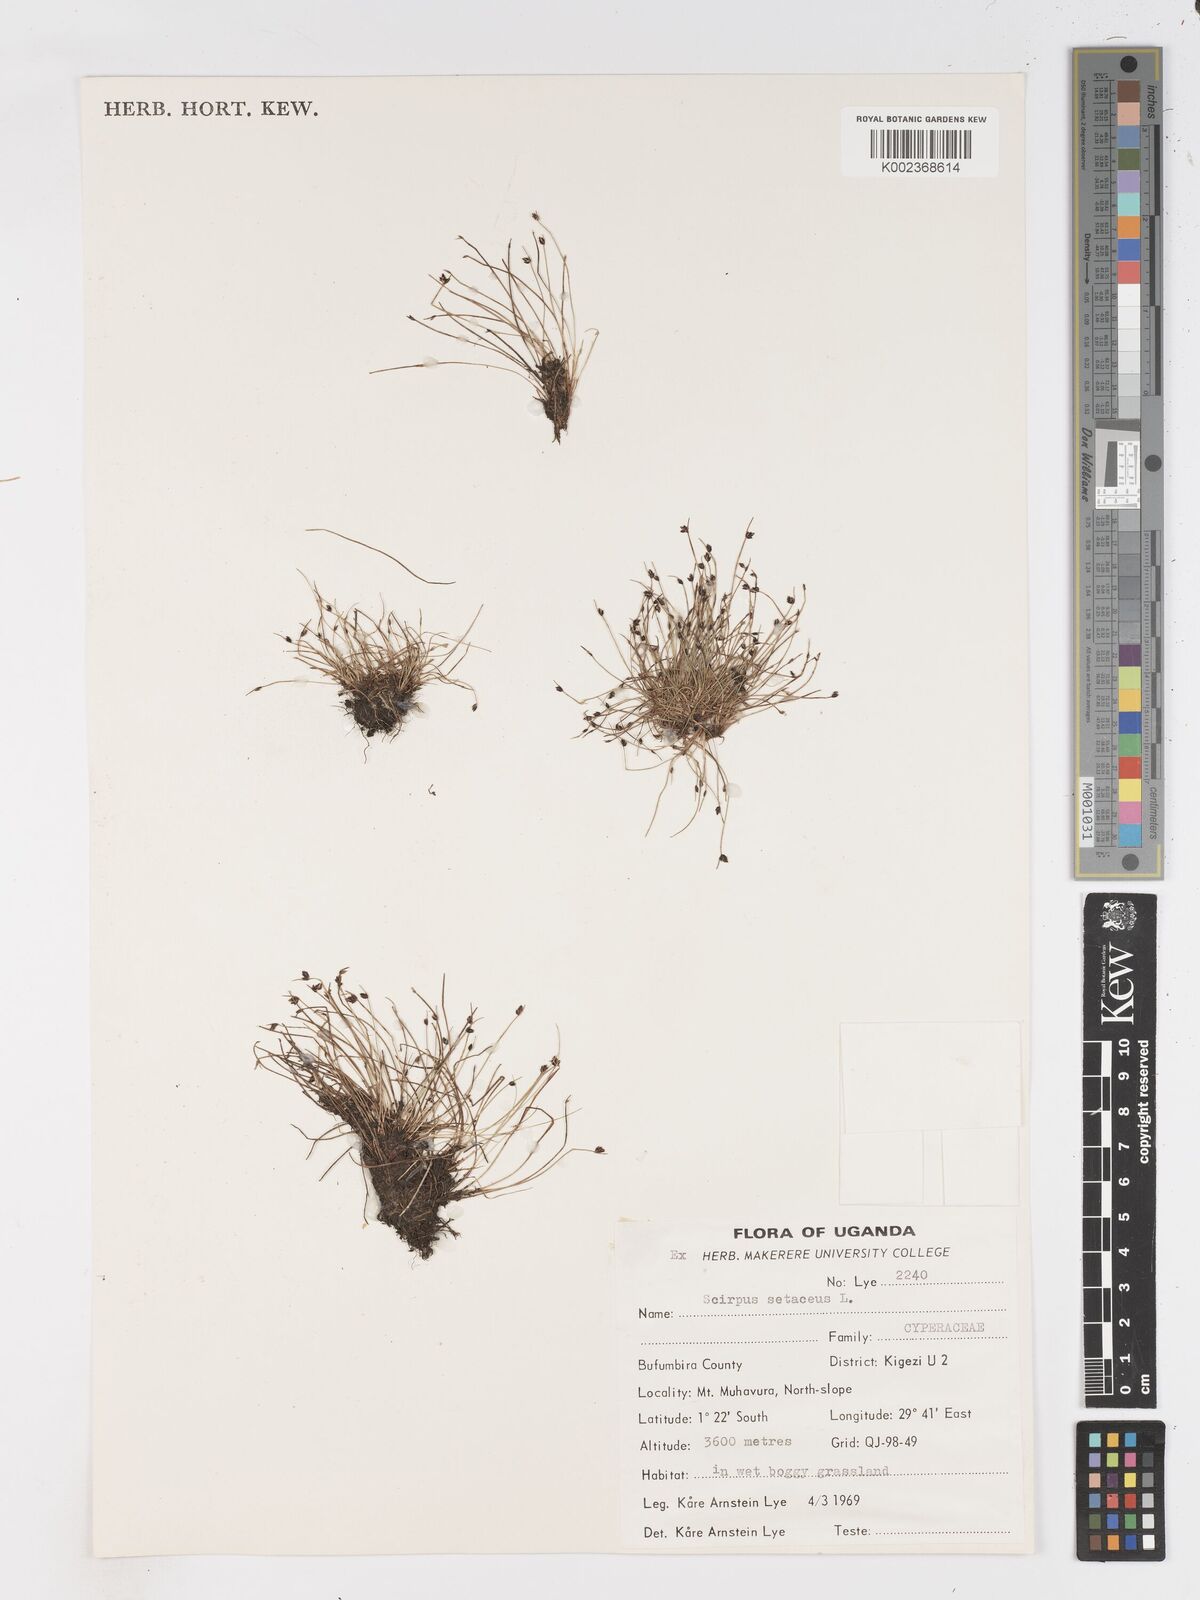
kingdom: Plantae
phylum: Tracheophyta
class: Liliopsida
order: Poales
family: Cyperaceae
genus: Isolepis
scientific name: Isolepis setacea
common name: Bristle club-rush
